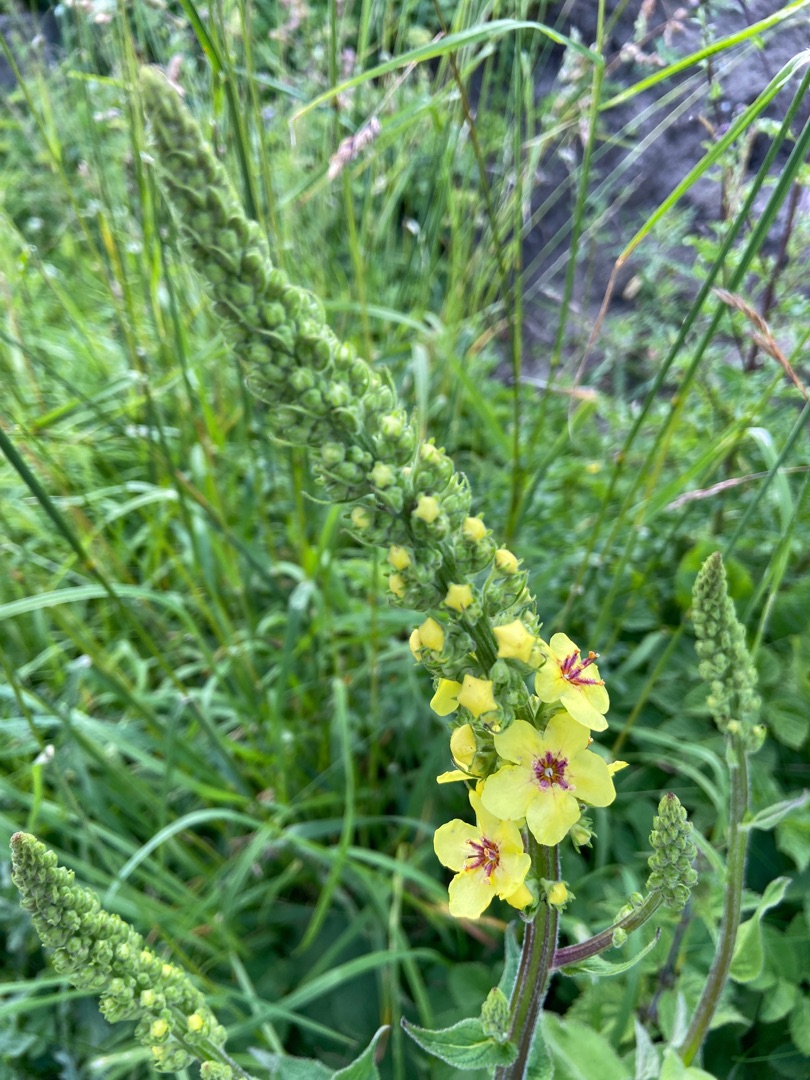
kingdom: Plantae
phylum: Tracheophyta
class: Magnoliopsida
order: Lamiales
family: Scrophulariaceae
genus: Verbascum
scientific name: Verbascum nigrum
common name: Mørk kongelys
